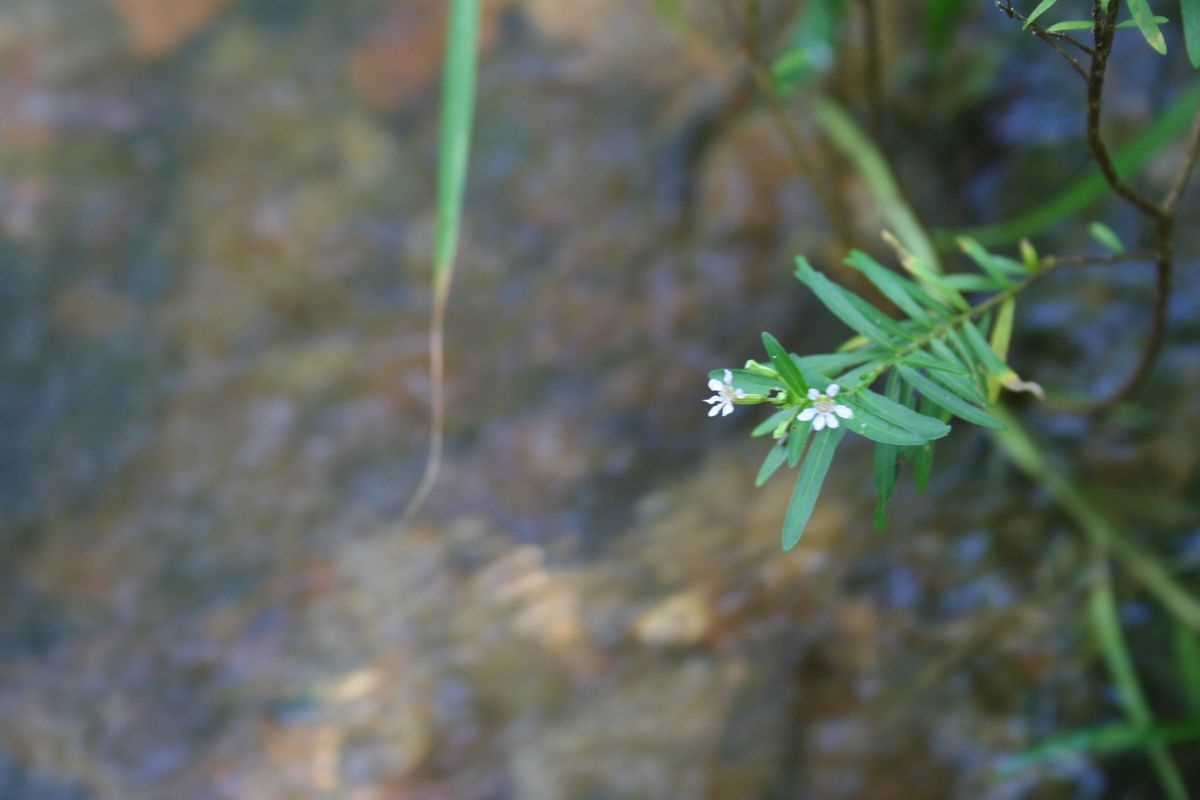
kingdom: Plantae
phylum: Tracheophyta
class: Magnoliopsida
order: Myrtales
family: Lythraceae
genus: Cuphea
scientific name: Cuphea utriculosa
